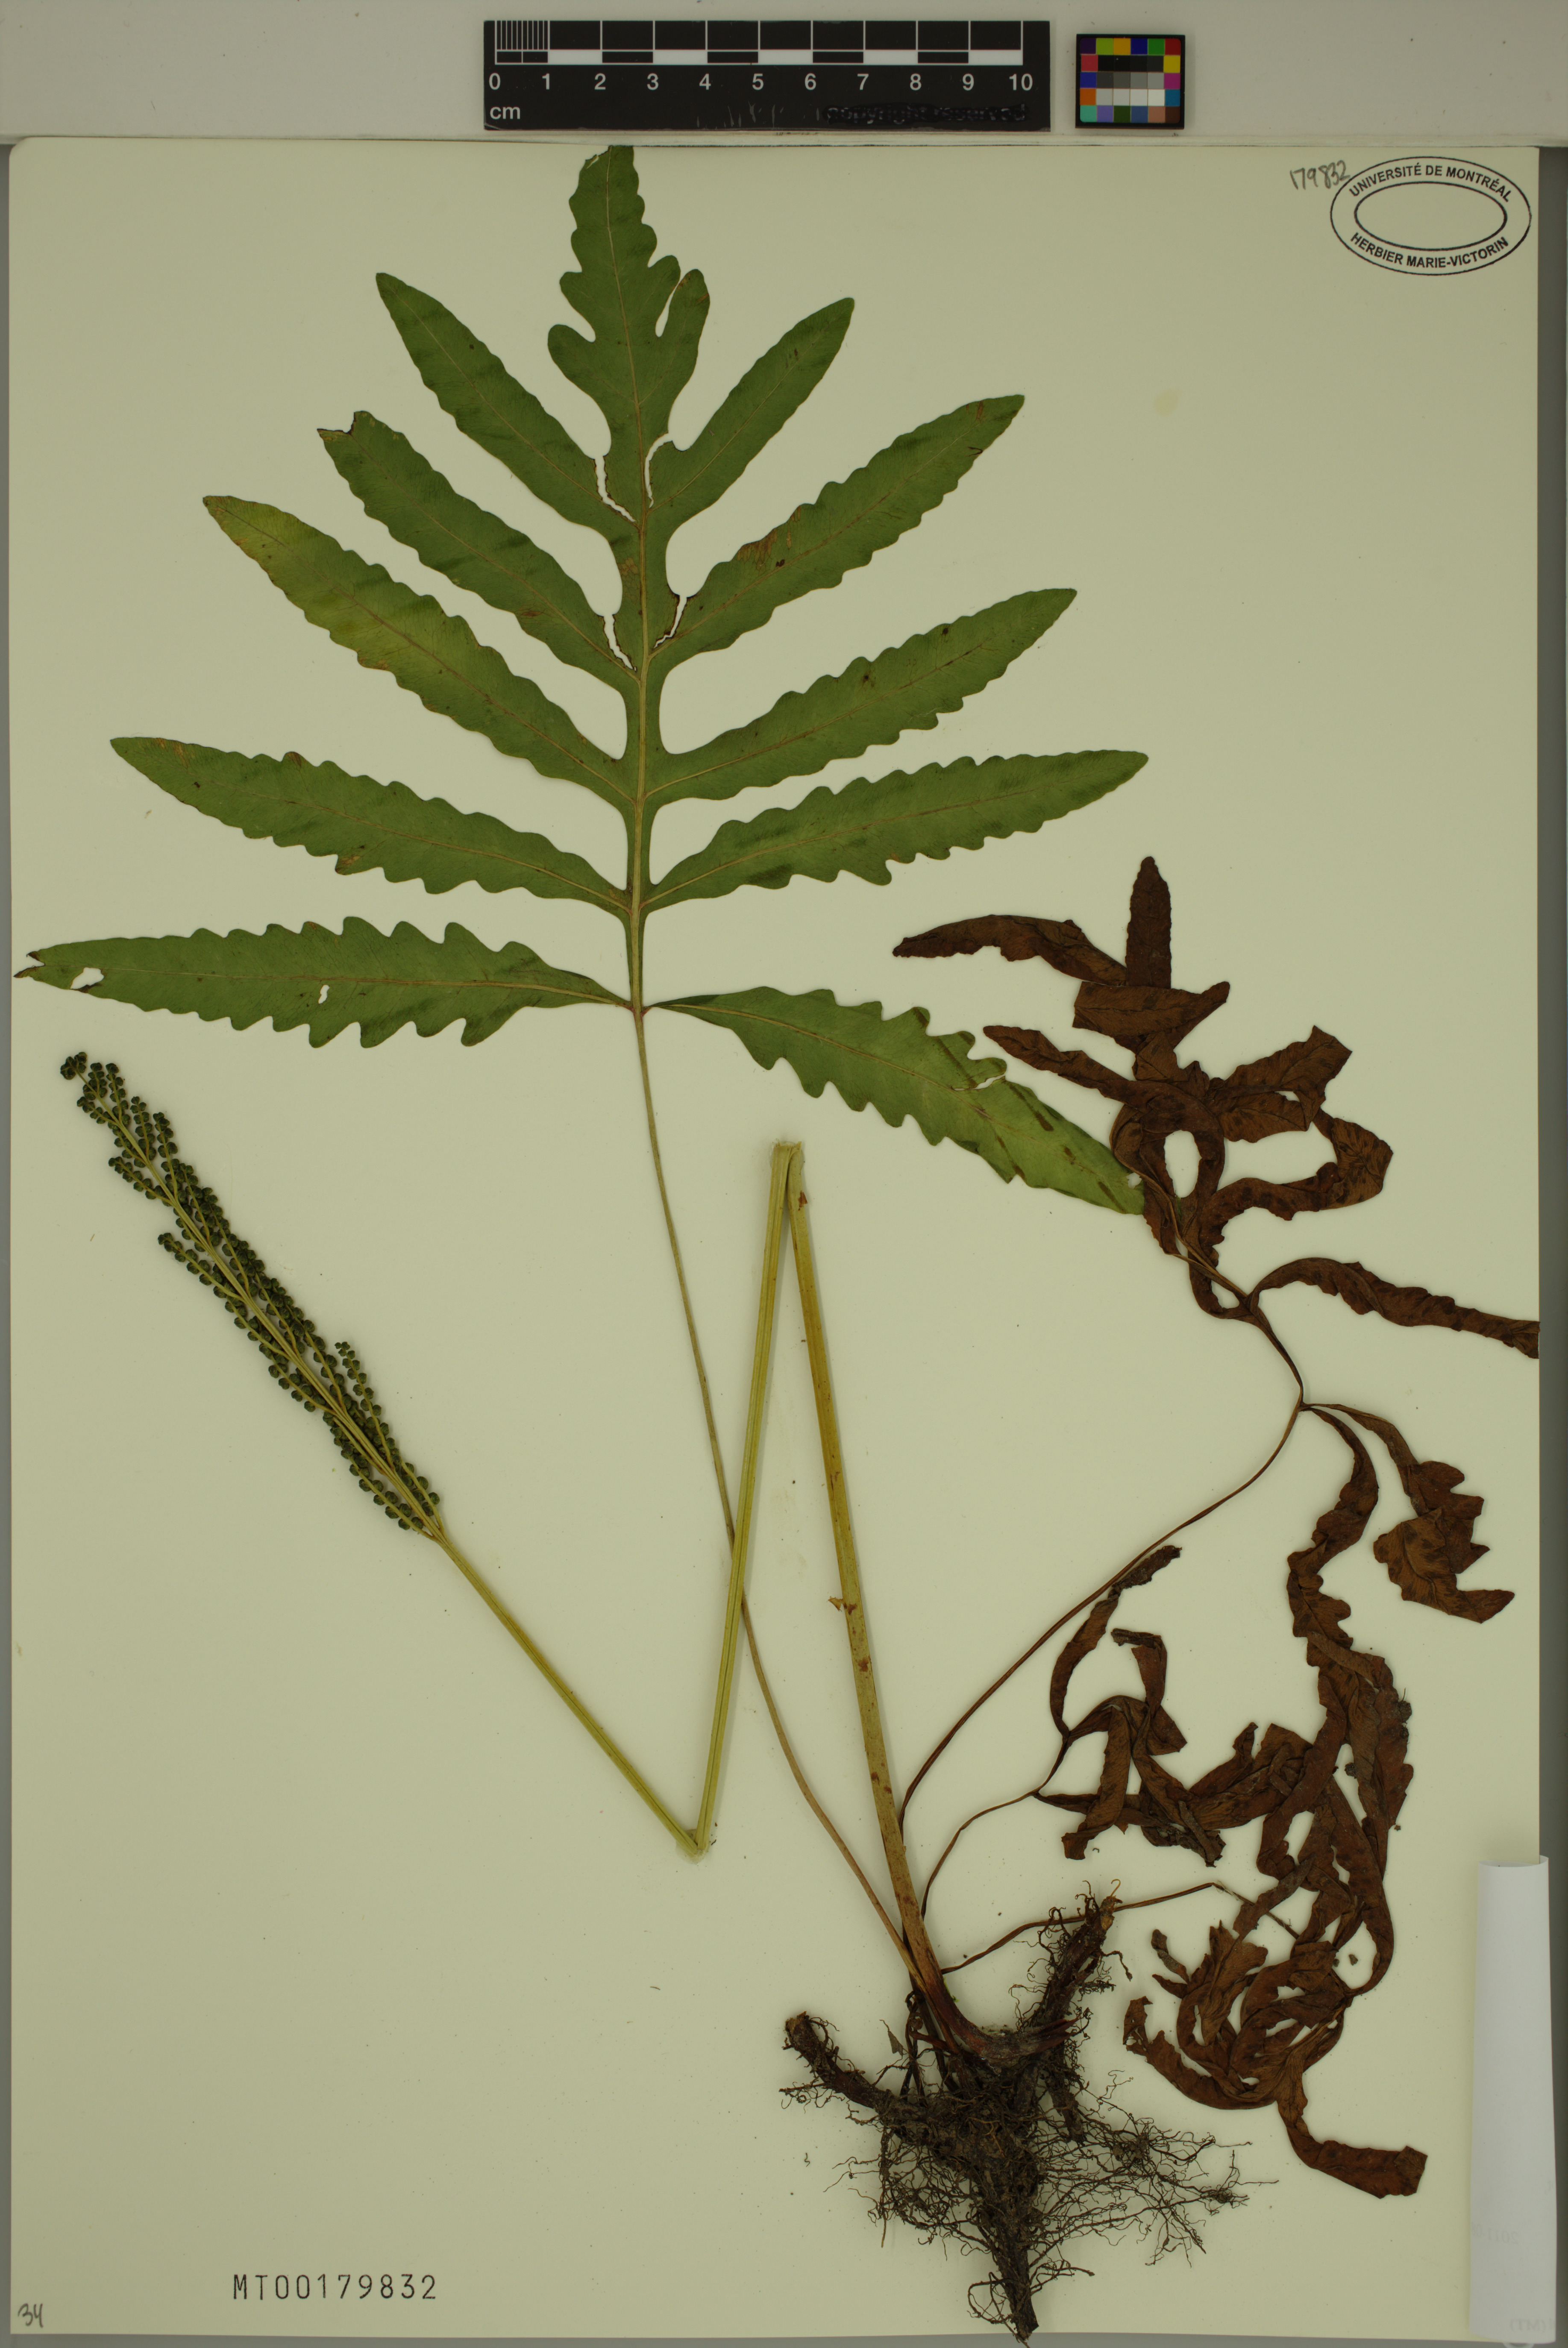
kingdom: Plantae
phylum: Tracheophyta
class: Polypodiopsida
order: Polypodiales
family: Onocleaceae
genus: Onoclea
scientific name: Onoclea sensibilis
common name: Sensitive fern
